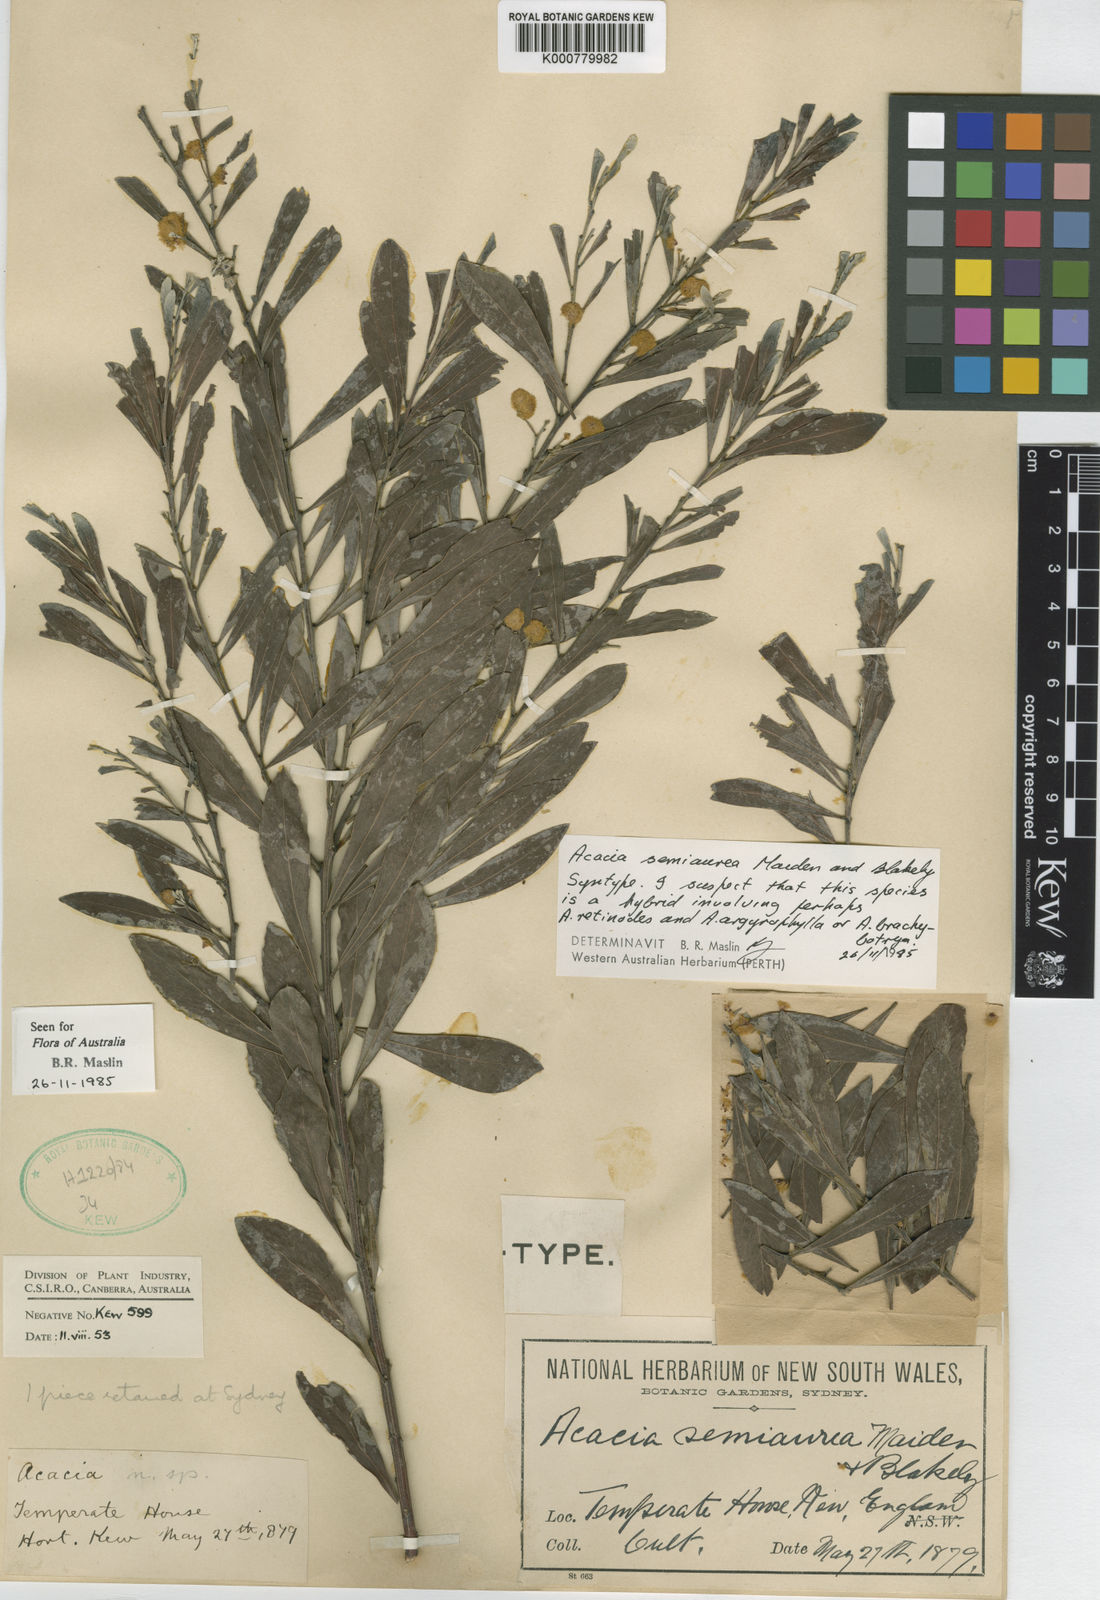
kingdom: Plantae
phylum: Tracheophyta
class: Magnoliopsida
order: Fabales
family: Fabaceae
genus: Acacia
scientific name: Acacia semiaurea
